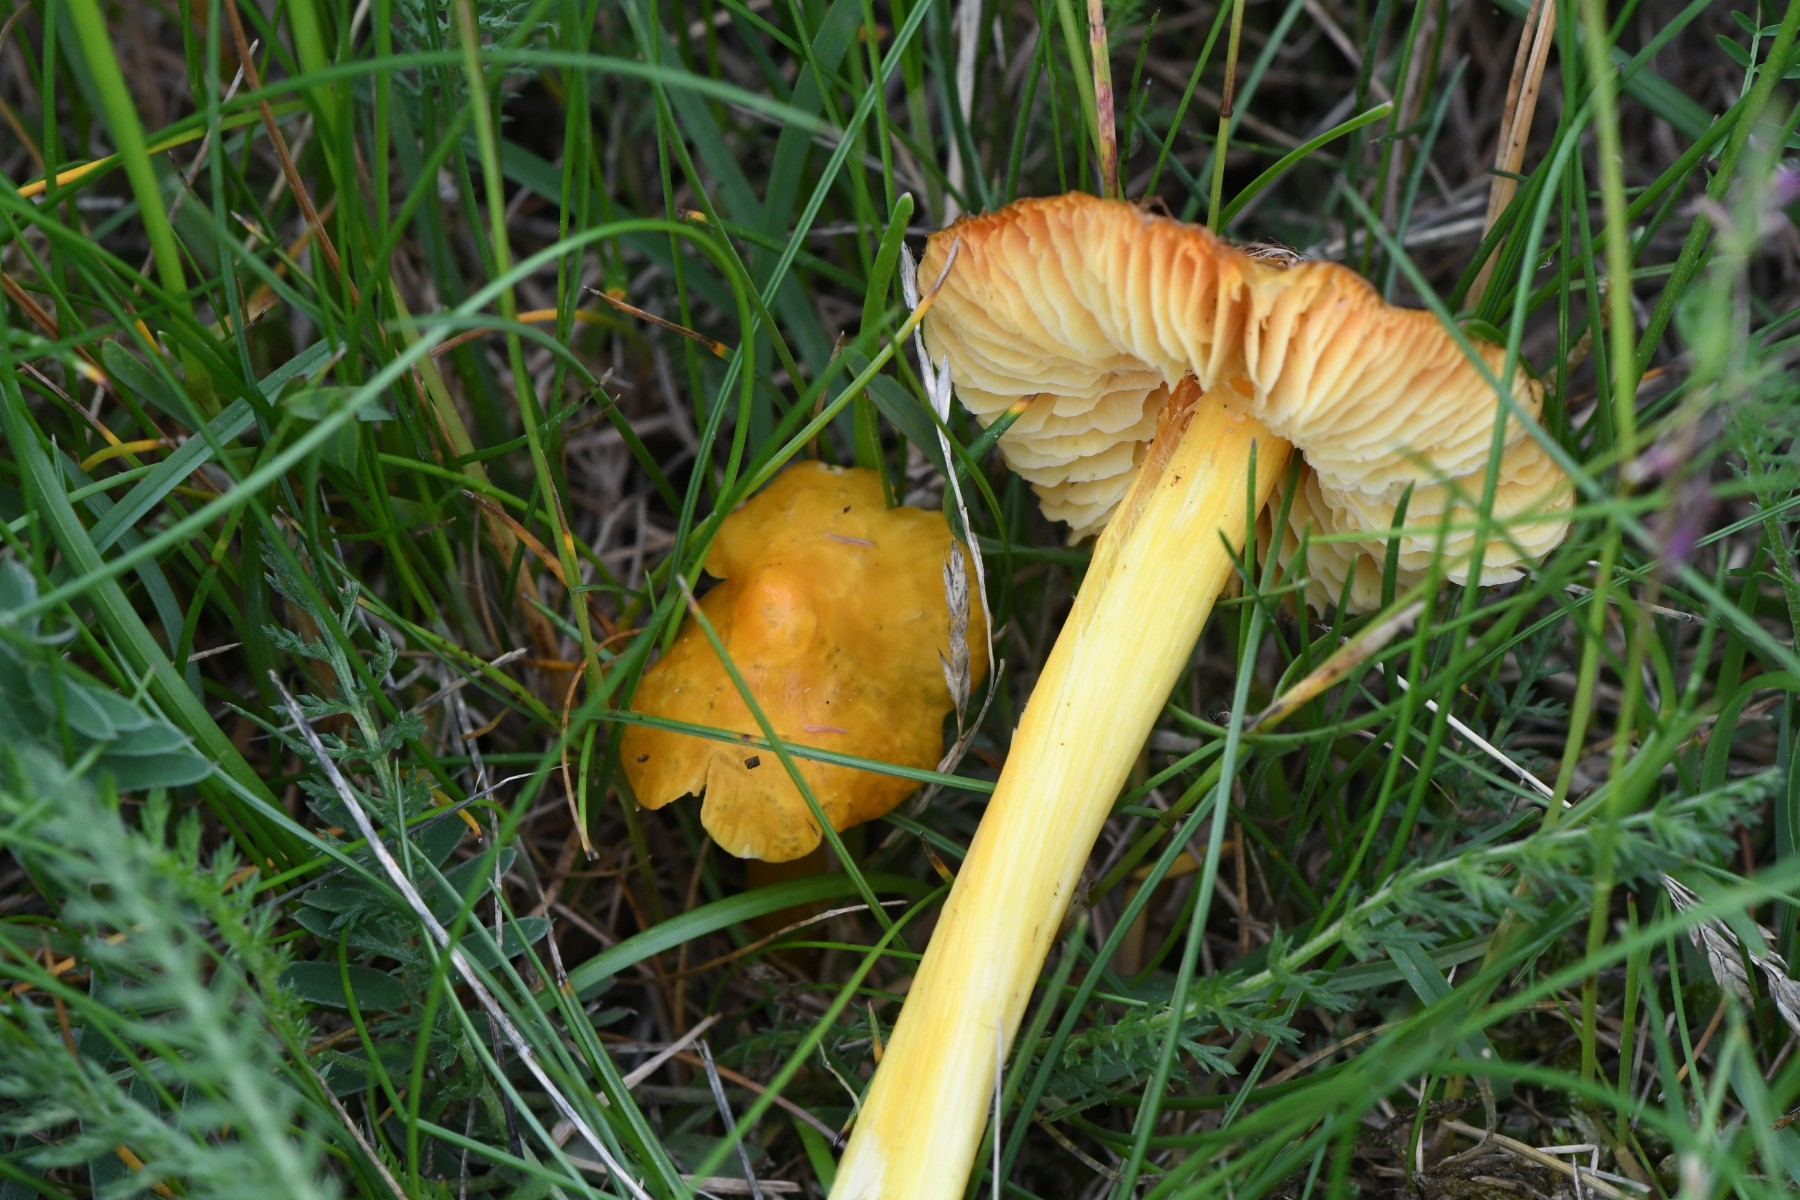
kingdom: Fungi
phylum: Basidiomycota
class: Agaricomycetes
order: Agaricales
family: Hygrophoraceae
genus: Hygrocybe
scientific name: Hygrocybe acutoconica
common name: spidspuklet vokshat
